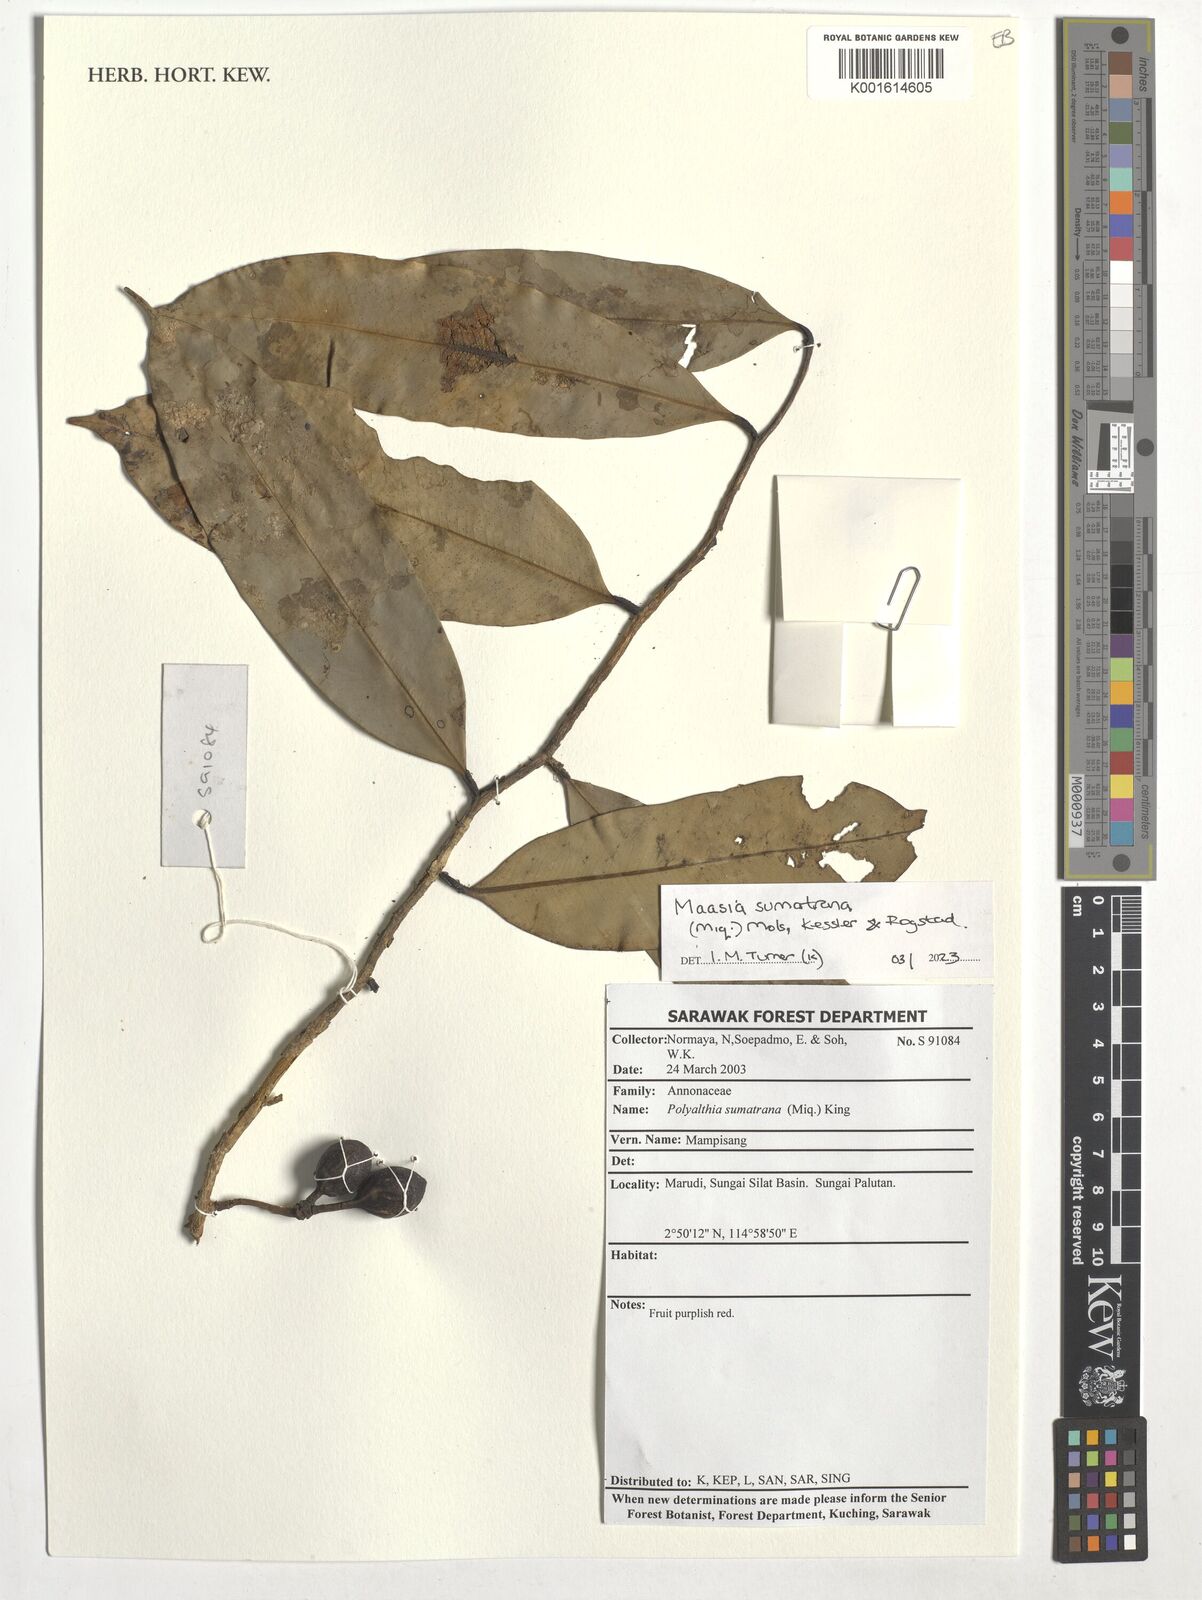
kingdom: Plantae
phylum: Tracheophyta
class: Magnoliopsida
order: Magnoliales
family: Annonaceae
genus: Maasia
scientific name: Maasia sumatrana
